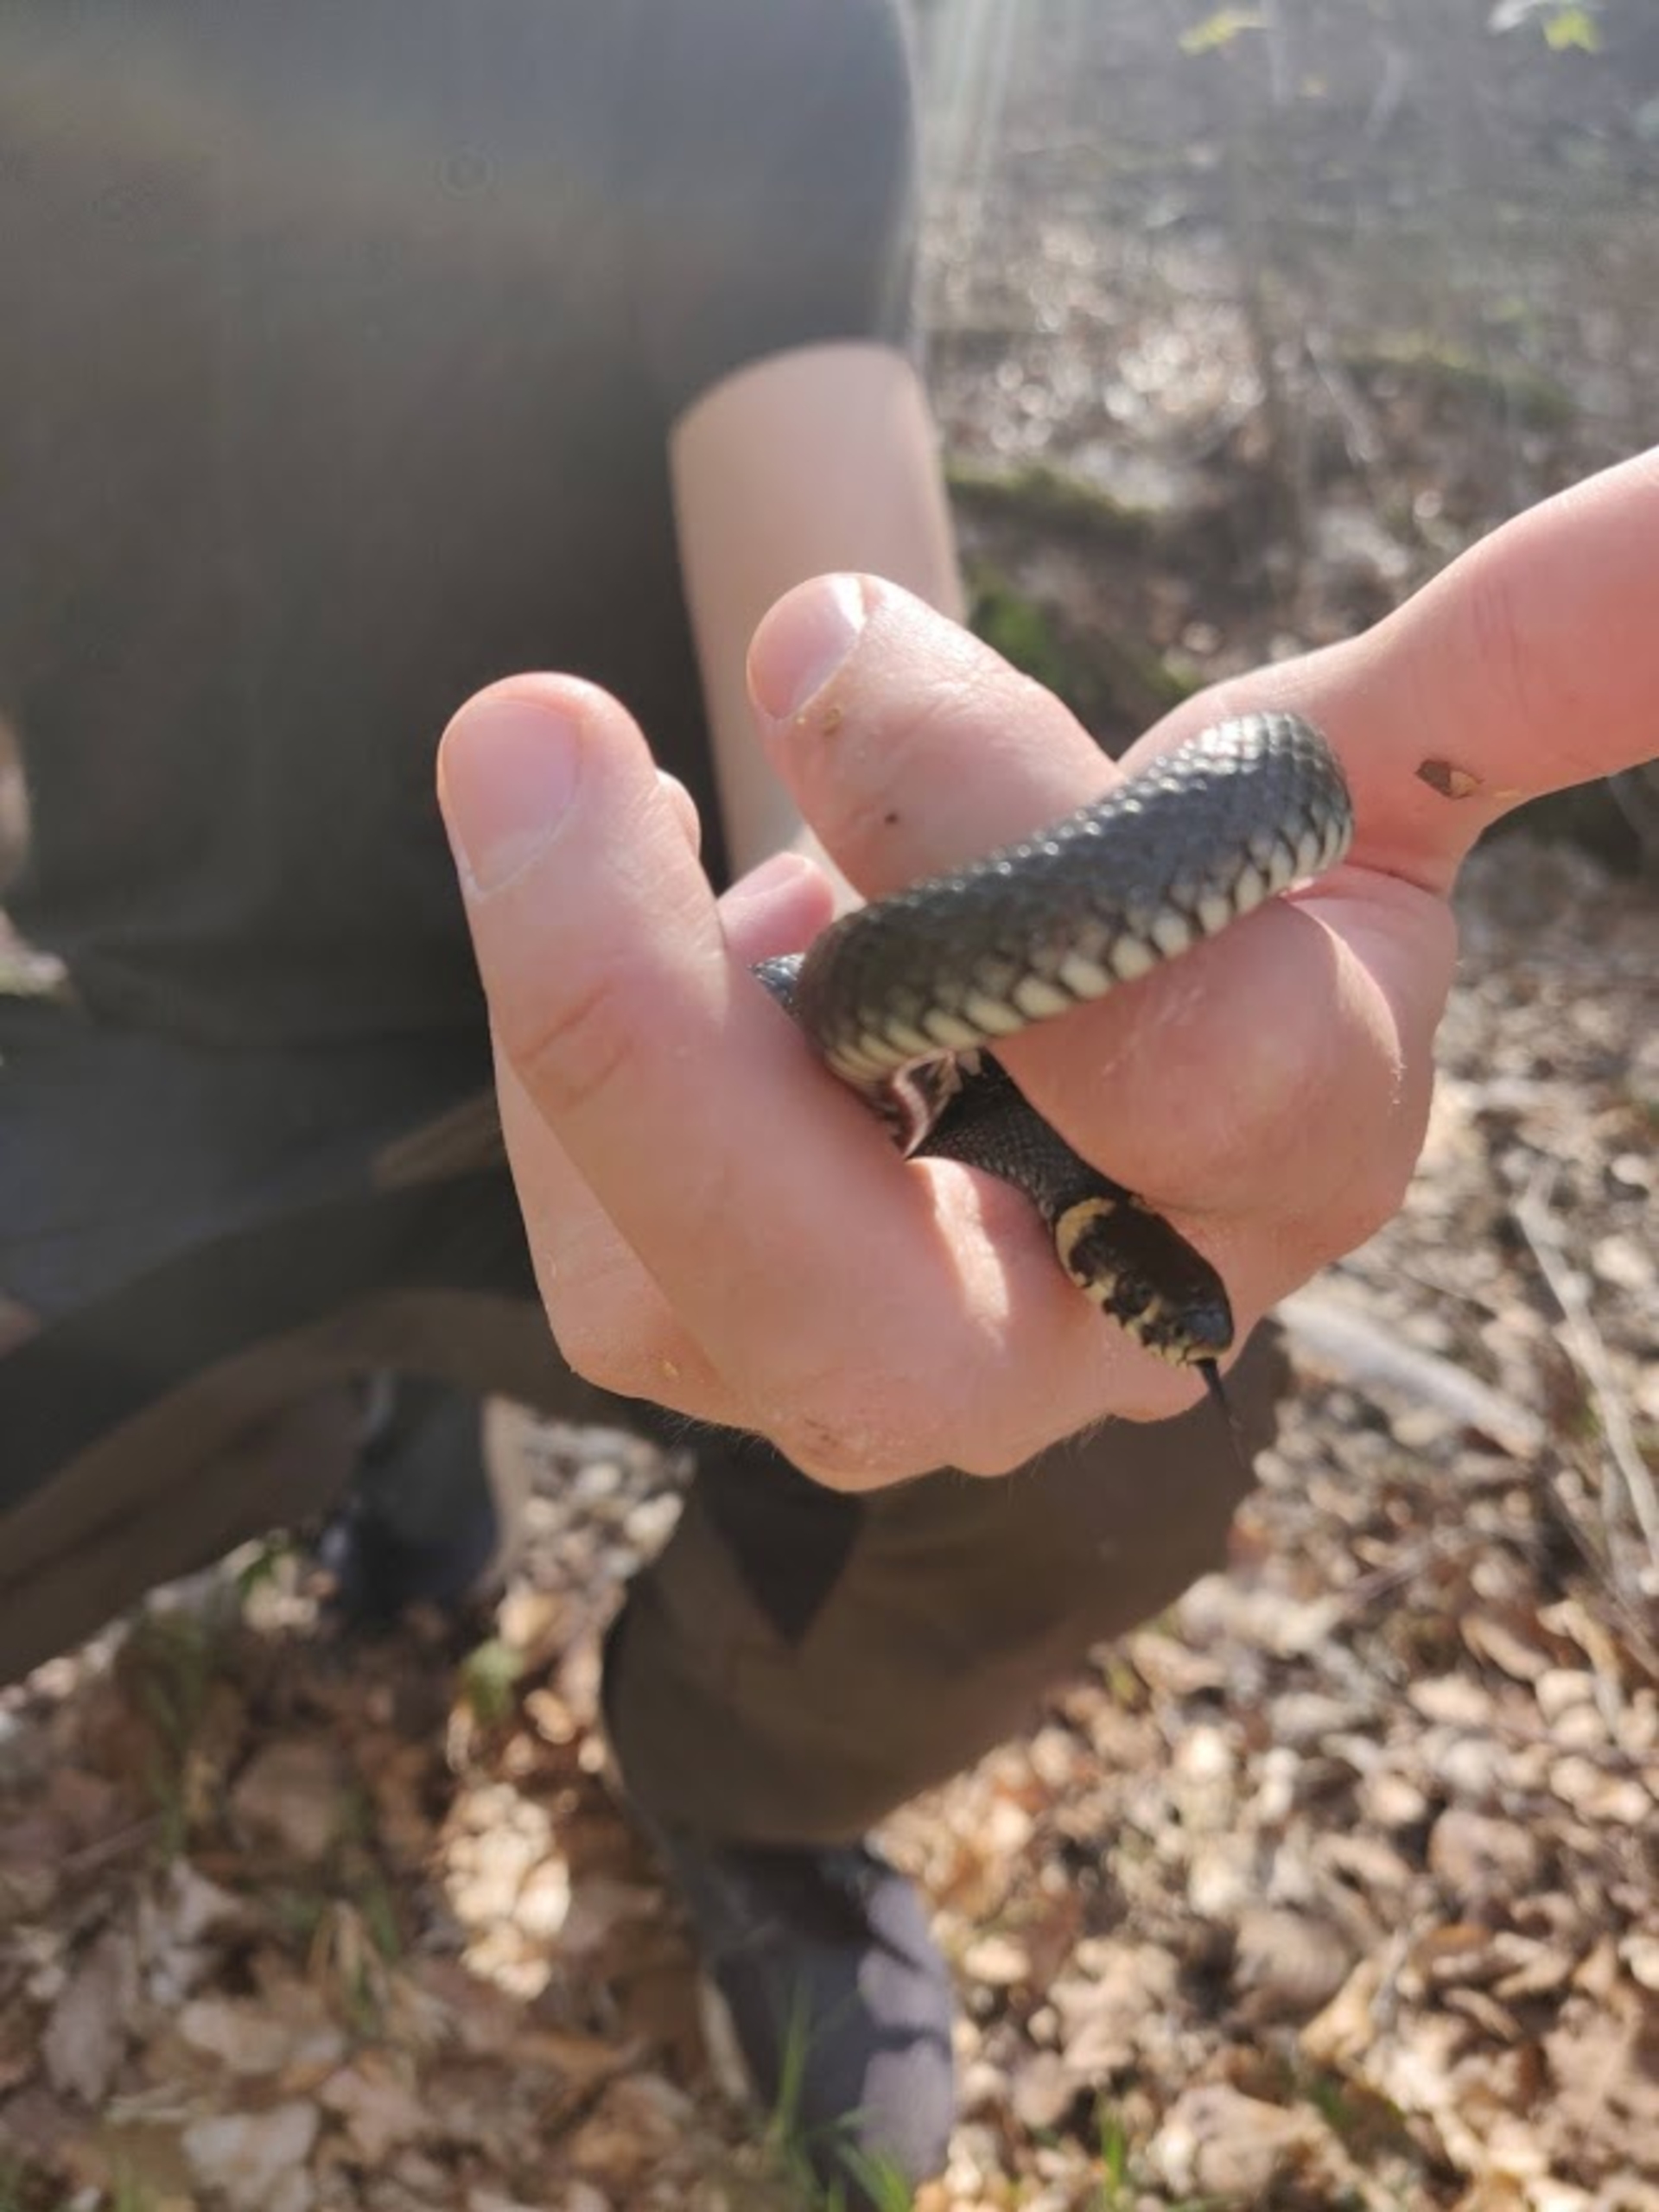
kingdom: Animalia
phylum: Chordata
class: Squamata
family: Colubridae
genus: Natrix
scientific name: Natrix natrix
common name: Snog
